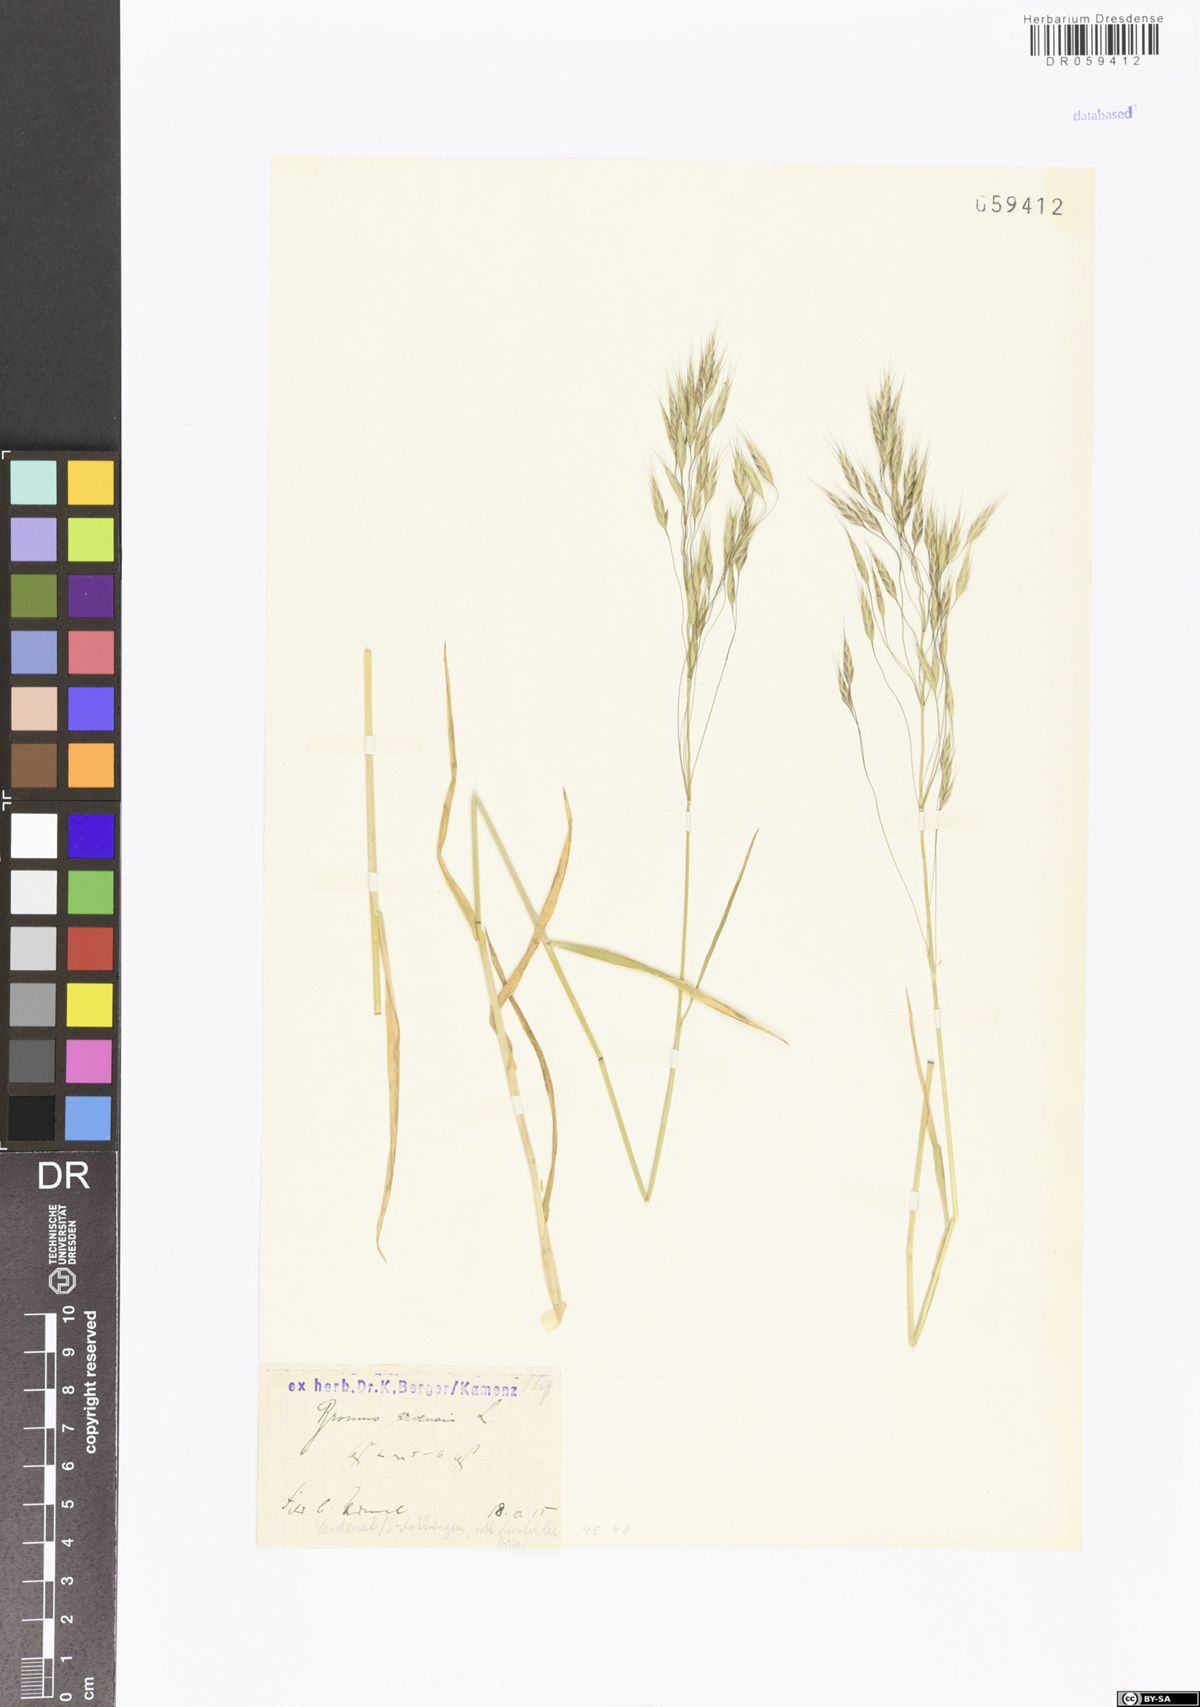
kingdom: Plantae
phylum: Tracheophyta
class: Liliopsida
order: Poales
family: Poaceae
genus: Bromus
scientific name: Bromus arvensis
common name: Field brome
